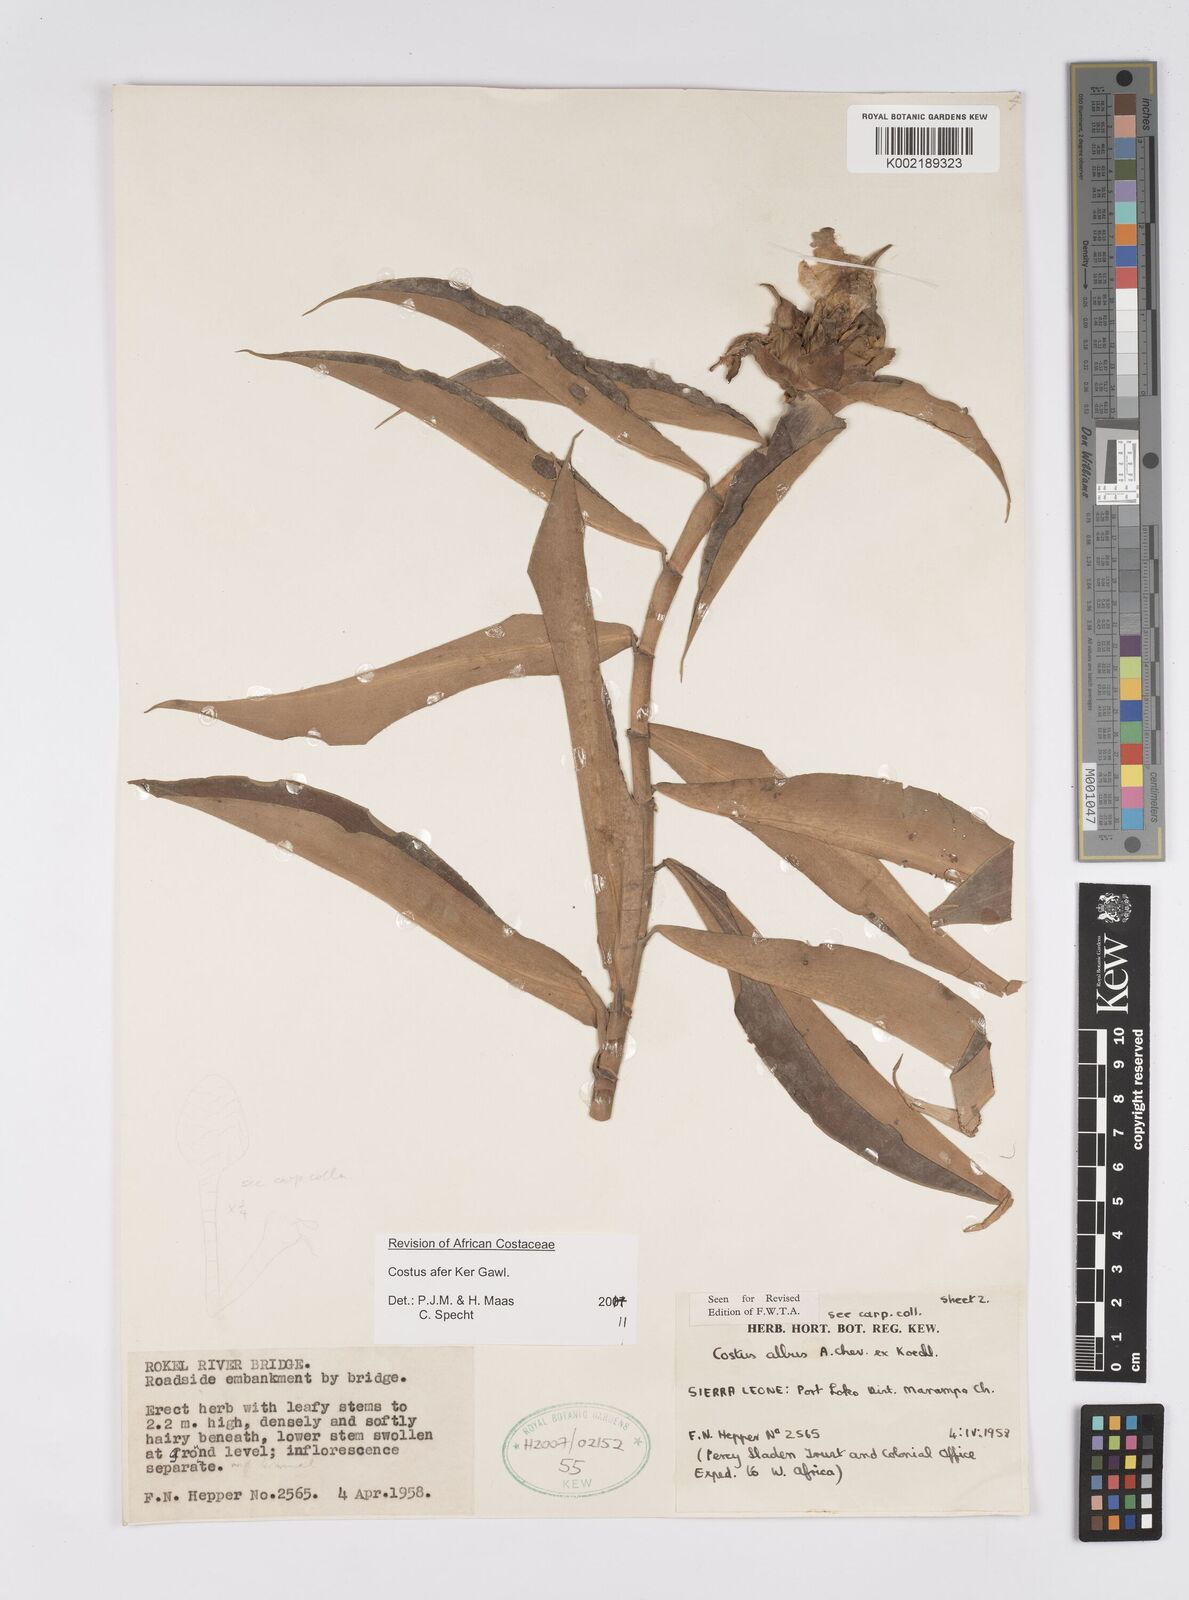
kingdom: Plantae
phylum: Tracheophyta
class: Liliopsida
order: Zingiberales
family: Costaceae
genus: Costus
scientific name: Costus afer
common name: Spiral-ginger
